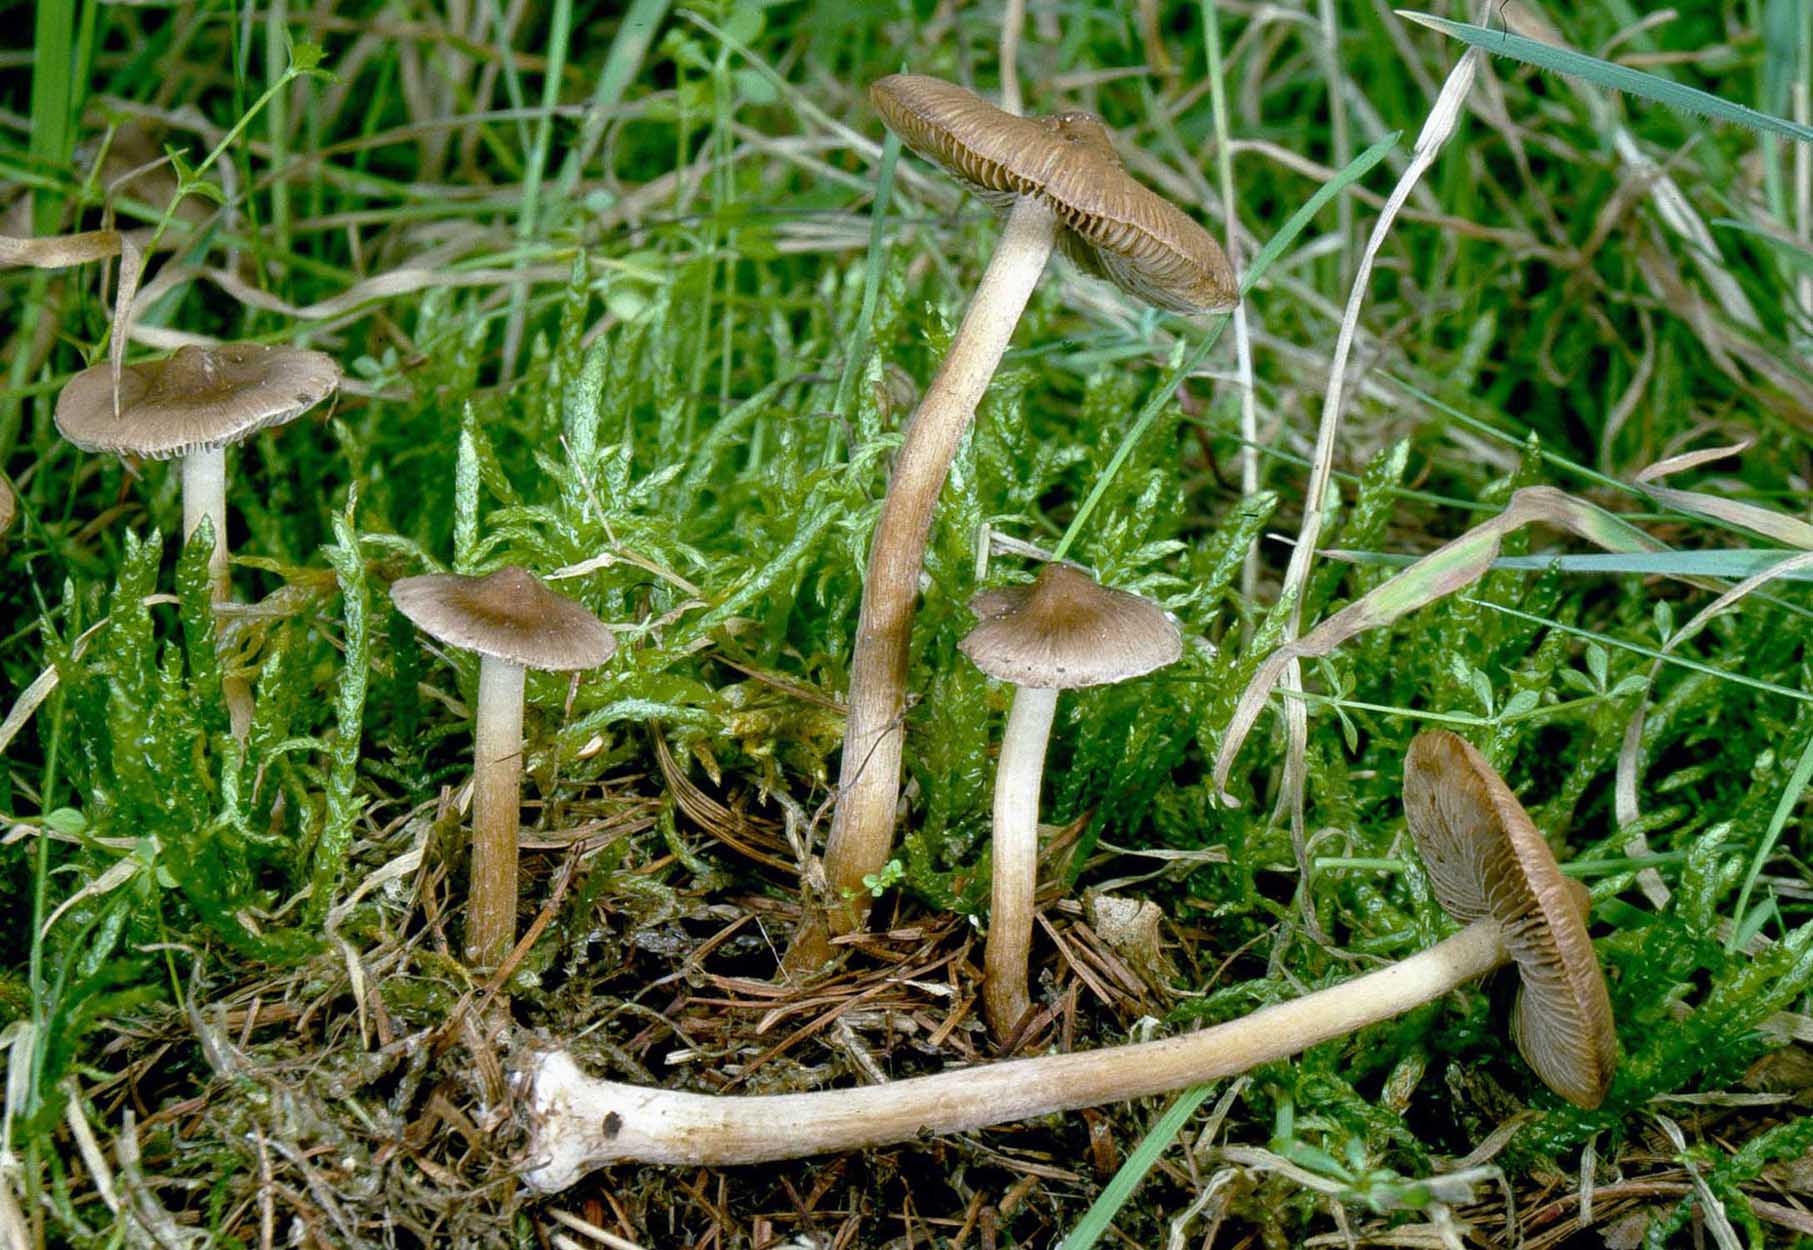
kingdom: Fungi
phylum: Basidiomycota
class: Agaricomycetes
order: Agaricales
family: Inocybaceae
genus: Inocybe
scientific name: Inocybe napipes
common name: roeknoldet trævlhat
